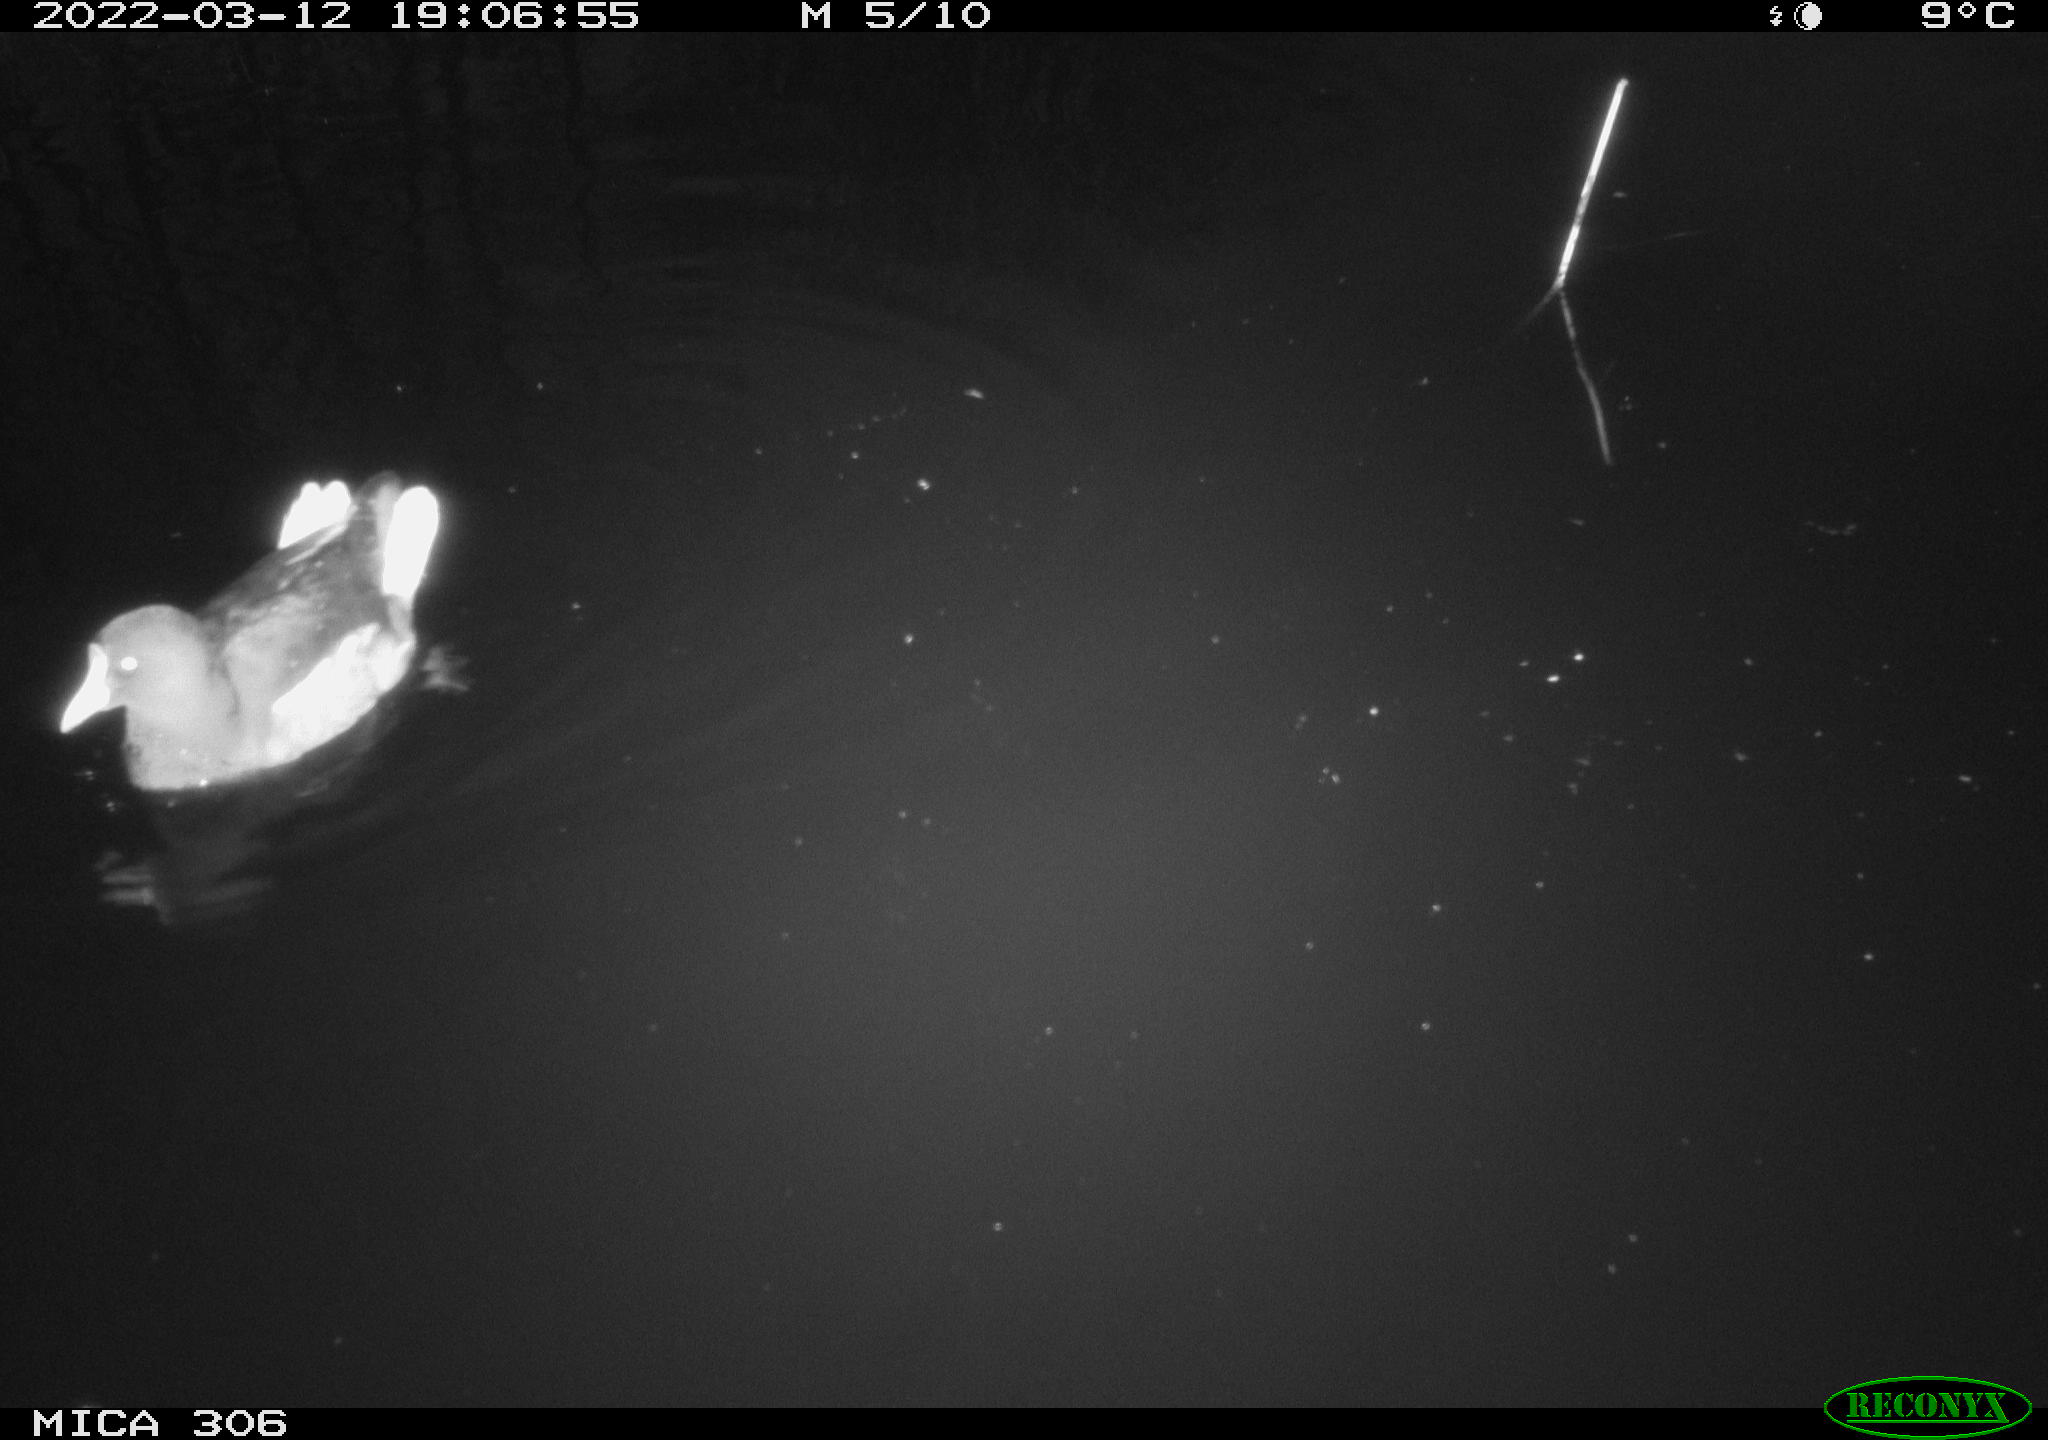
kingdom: Animalia
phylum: Chordata
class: Aves
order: Gruiformes
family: Rallidae
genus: Gallinula
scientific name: Gallinula chloropus
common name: Common moorhen
